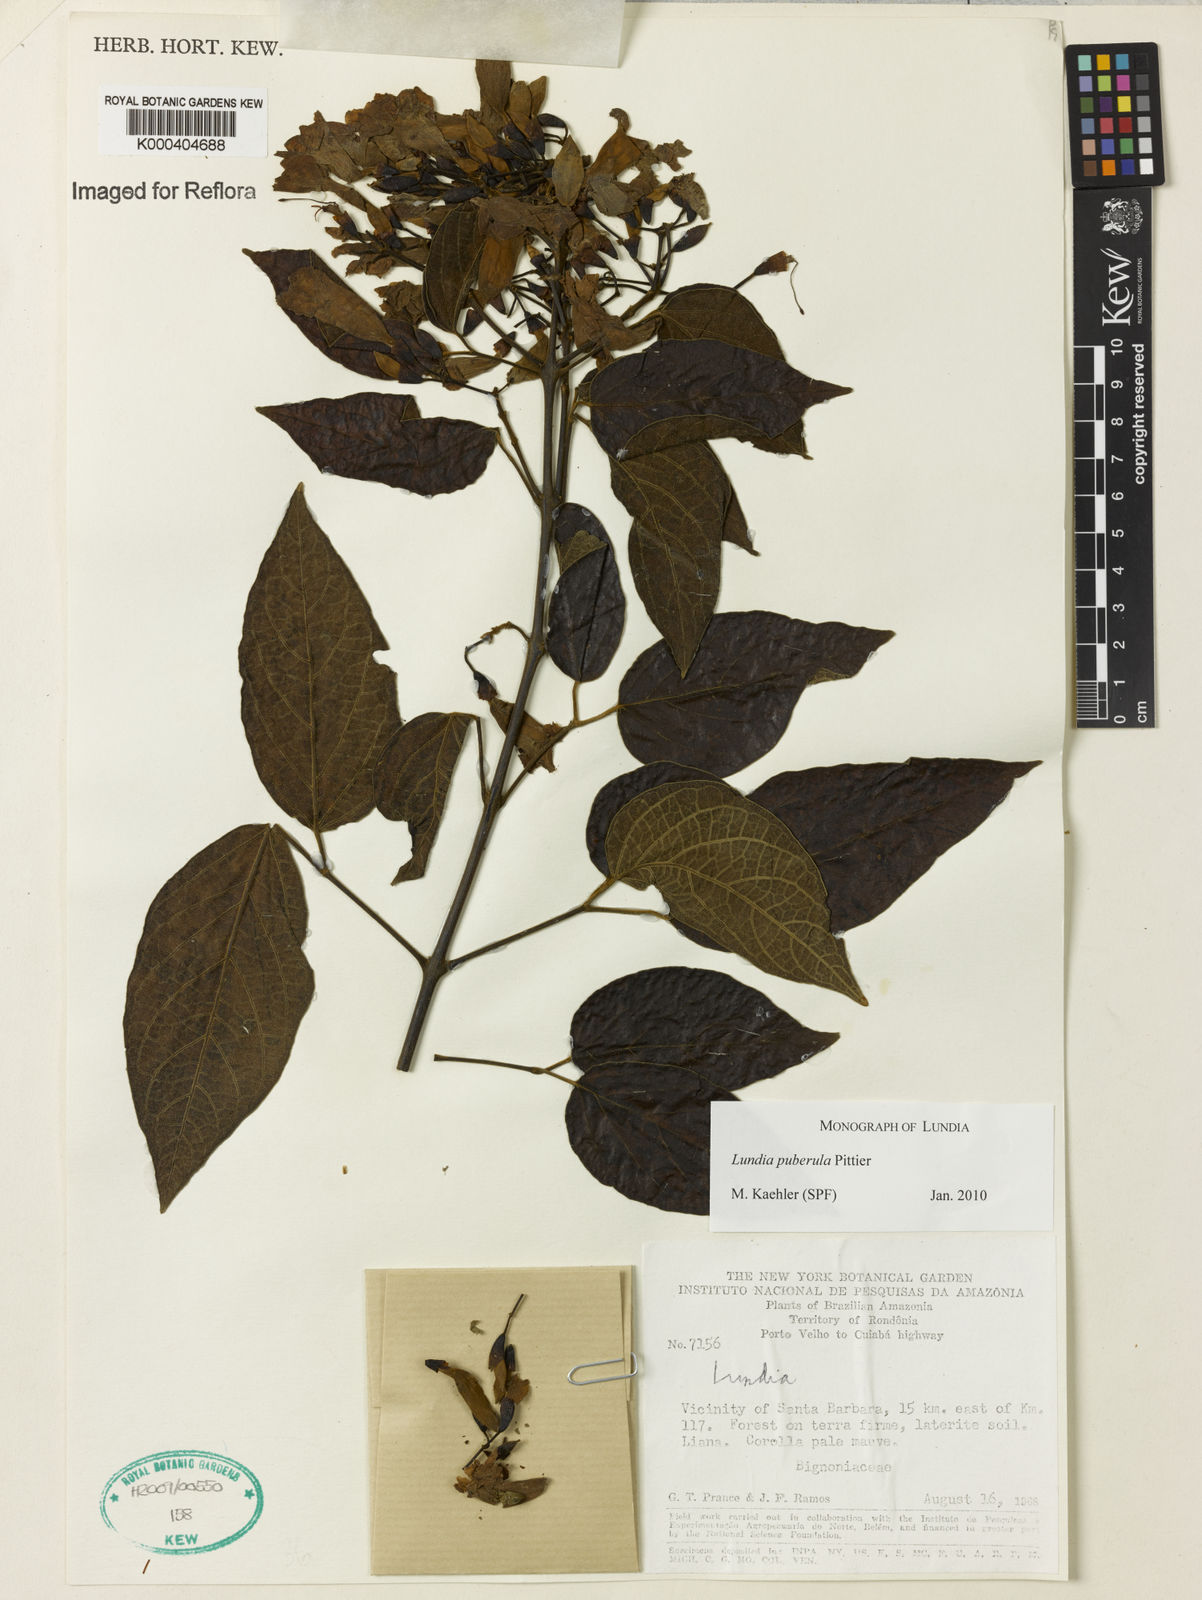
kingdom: Plantae
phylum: Tracheophyta
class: Magnoliopsida
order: Lamiales
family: Bignoniaceae
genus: Lundia
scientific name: Lundia puberula
